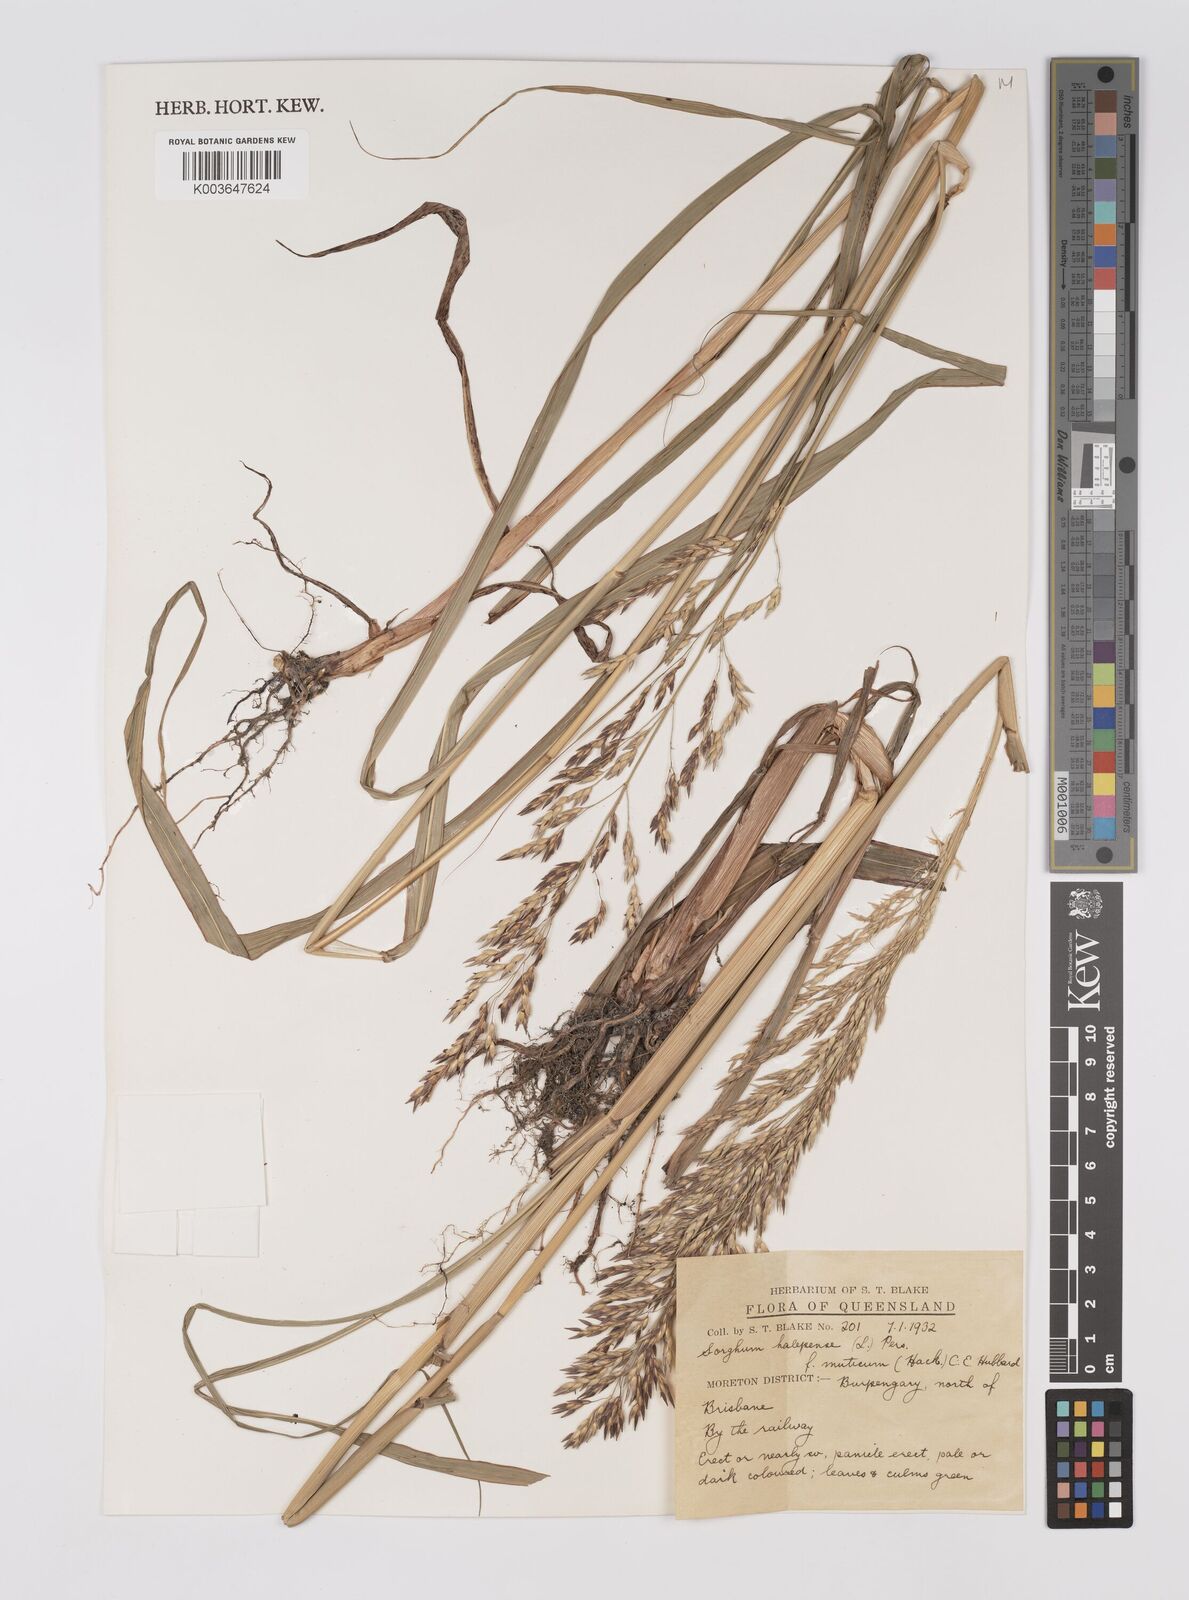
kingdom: Plantae
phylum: Tracheophyta
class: Liliopsida
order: Poales
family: Poaceae
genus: Sorghum
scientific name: Sorghum halepense
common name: Johnson-grass
